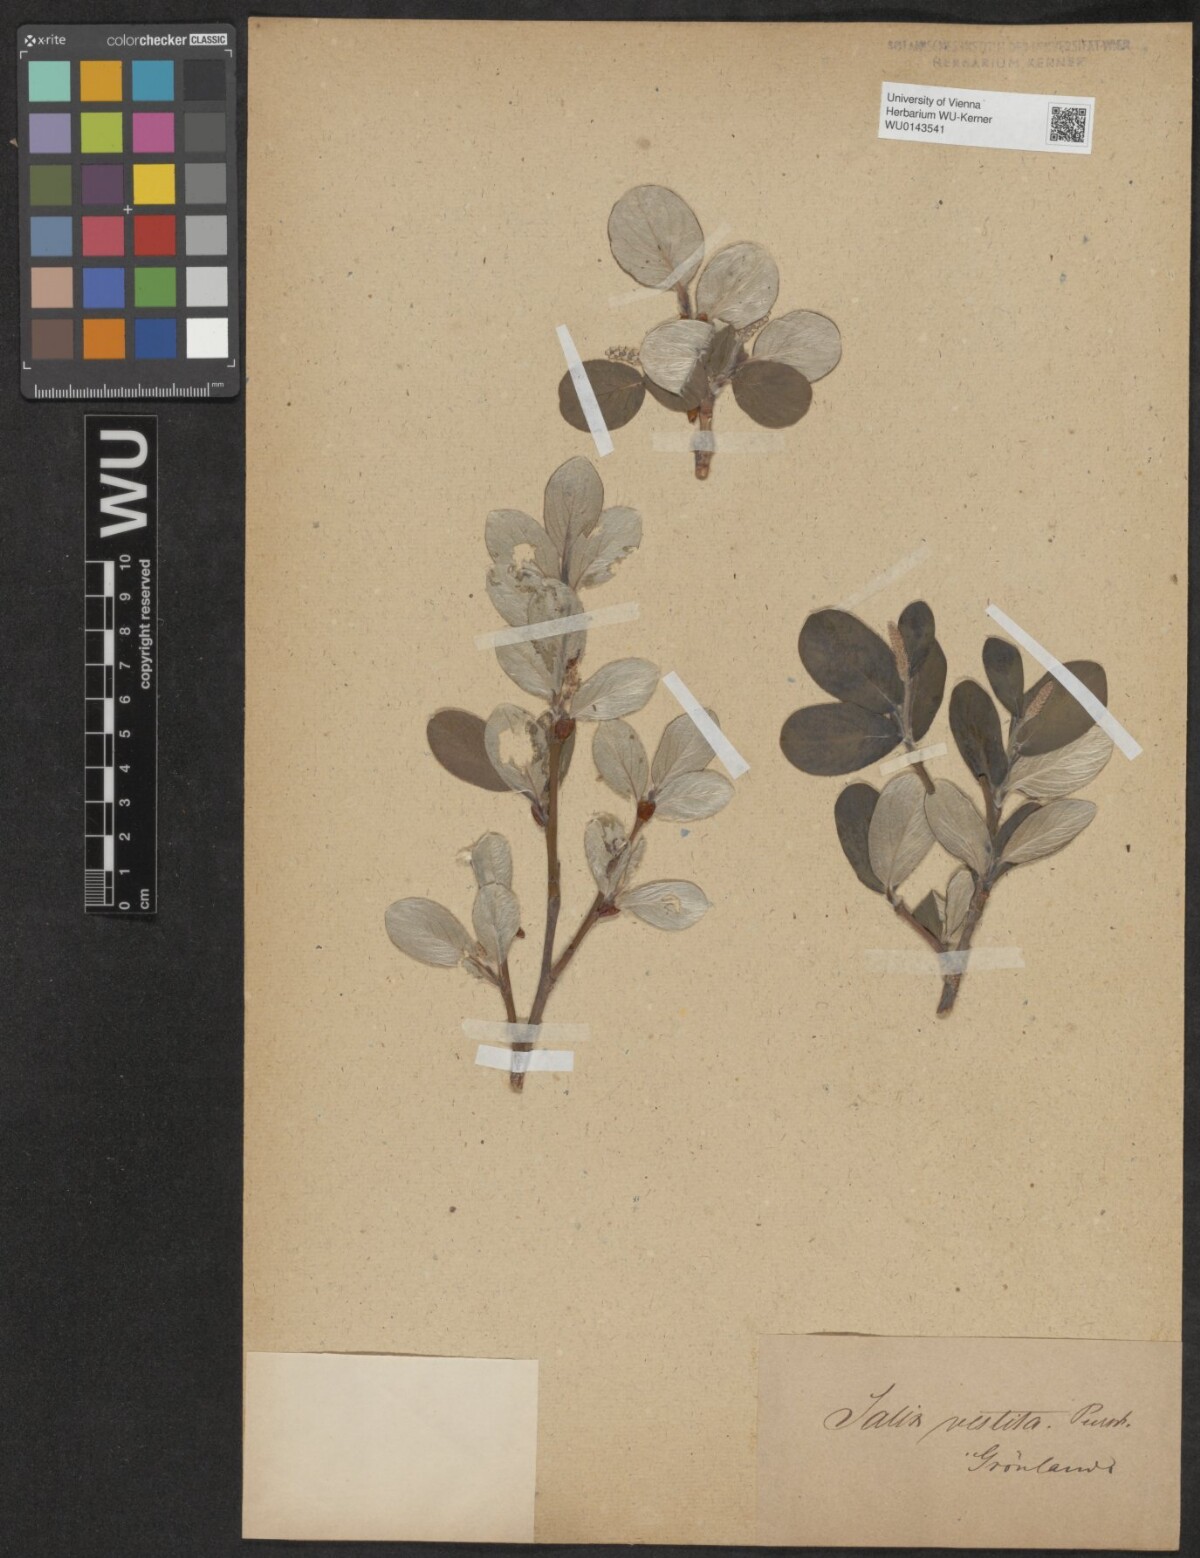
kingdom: Plantae
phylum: Tracheophyta
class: Magnoliopsida
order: Malpighiales
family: Salicaceae
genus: Salix
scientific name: Salix vestita
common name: Hairy willow
